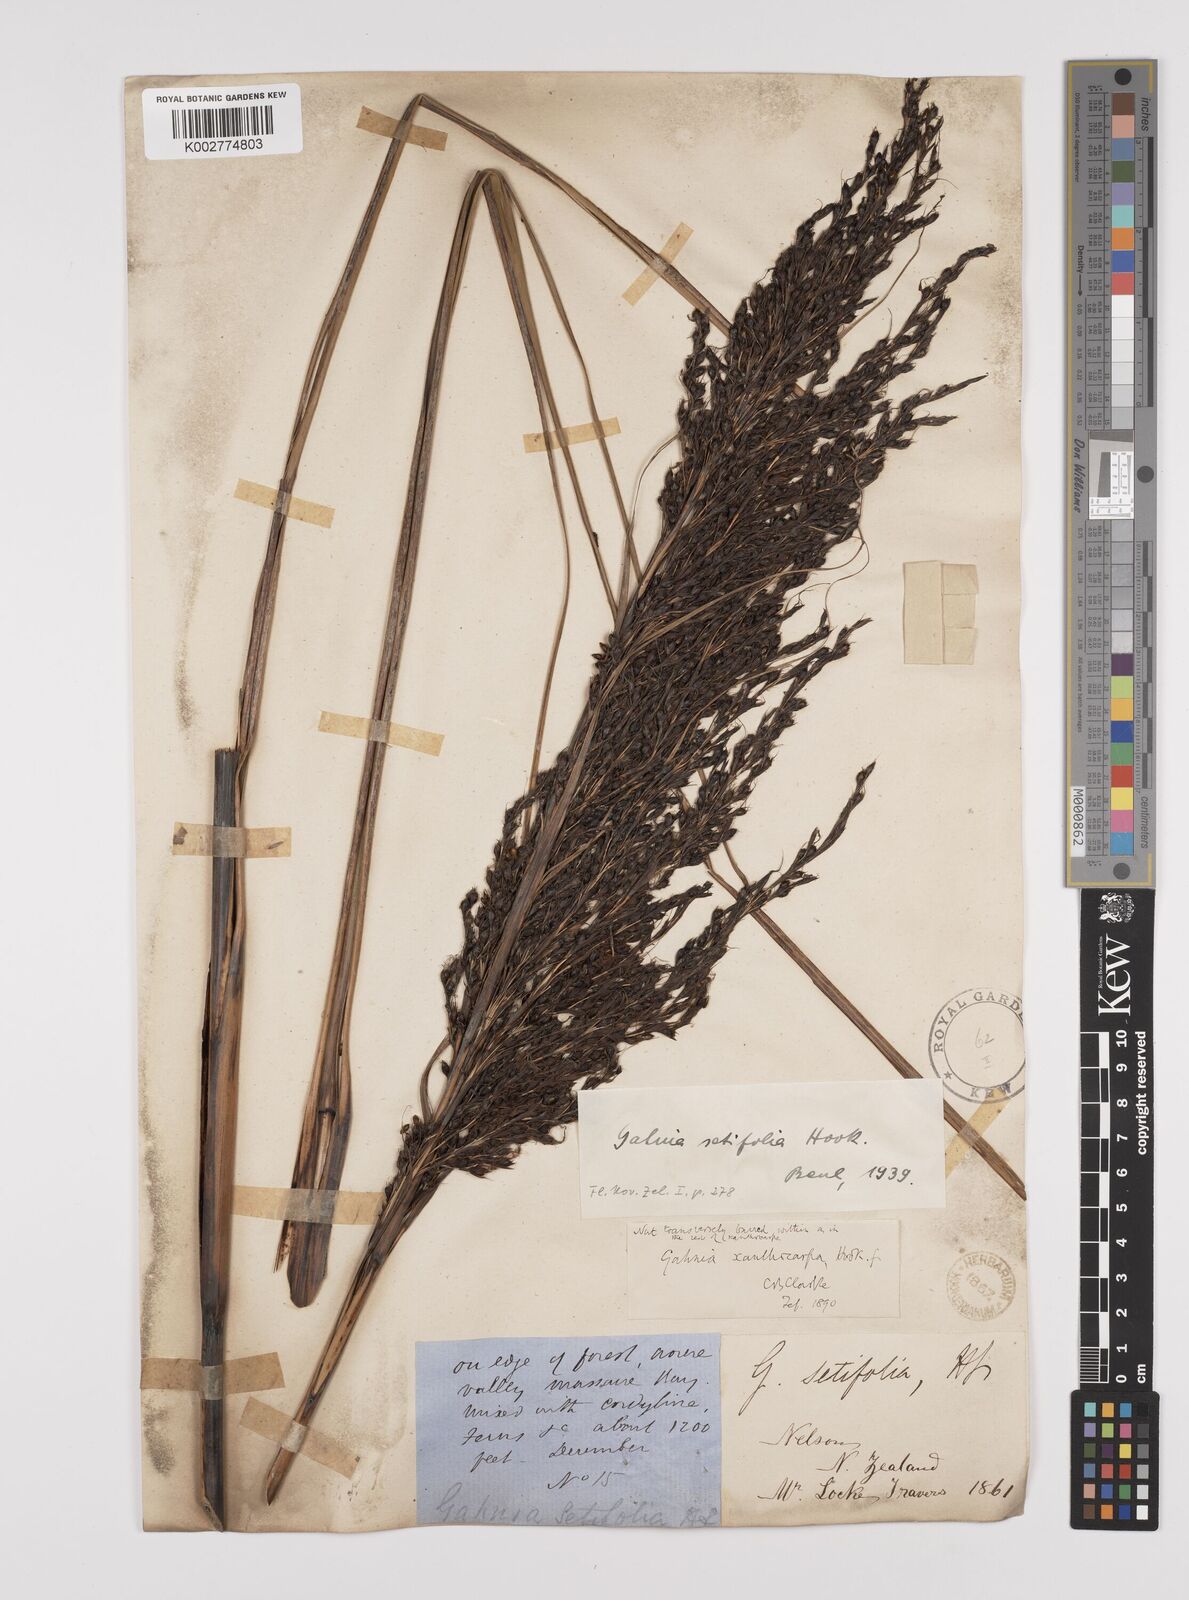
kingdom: Plantae
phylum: Tracheophyta
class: Liliopsida
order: Poales
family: Cyperaceae
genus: Gahnia
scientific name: Gahnia setifolia
